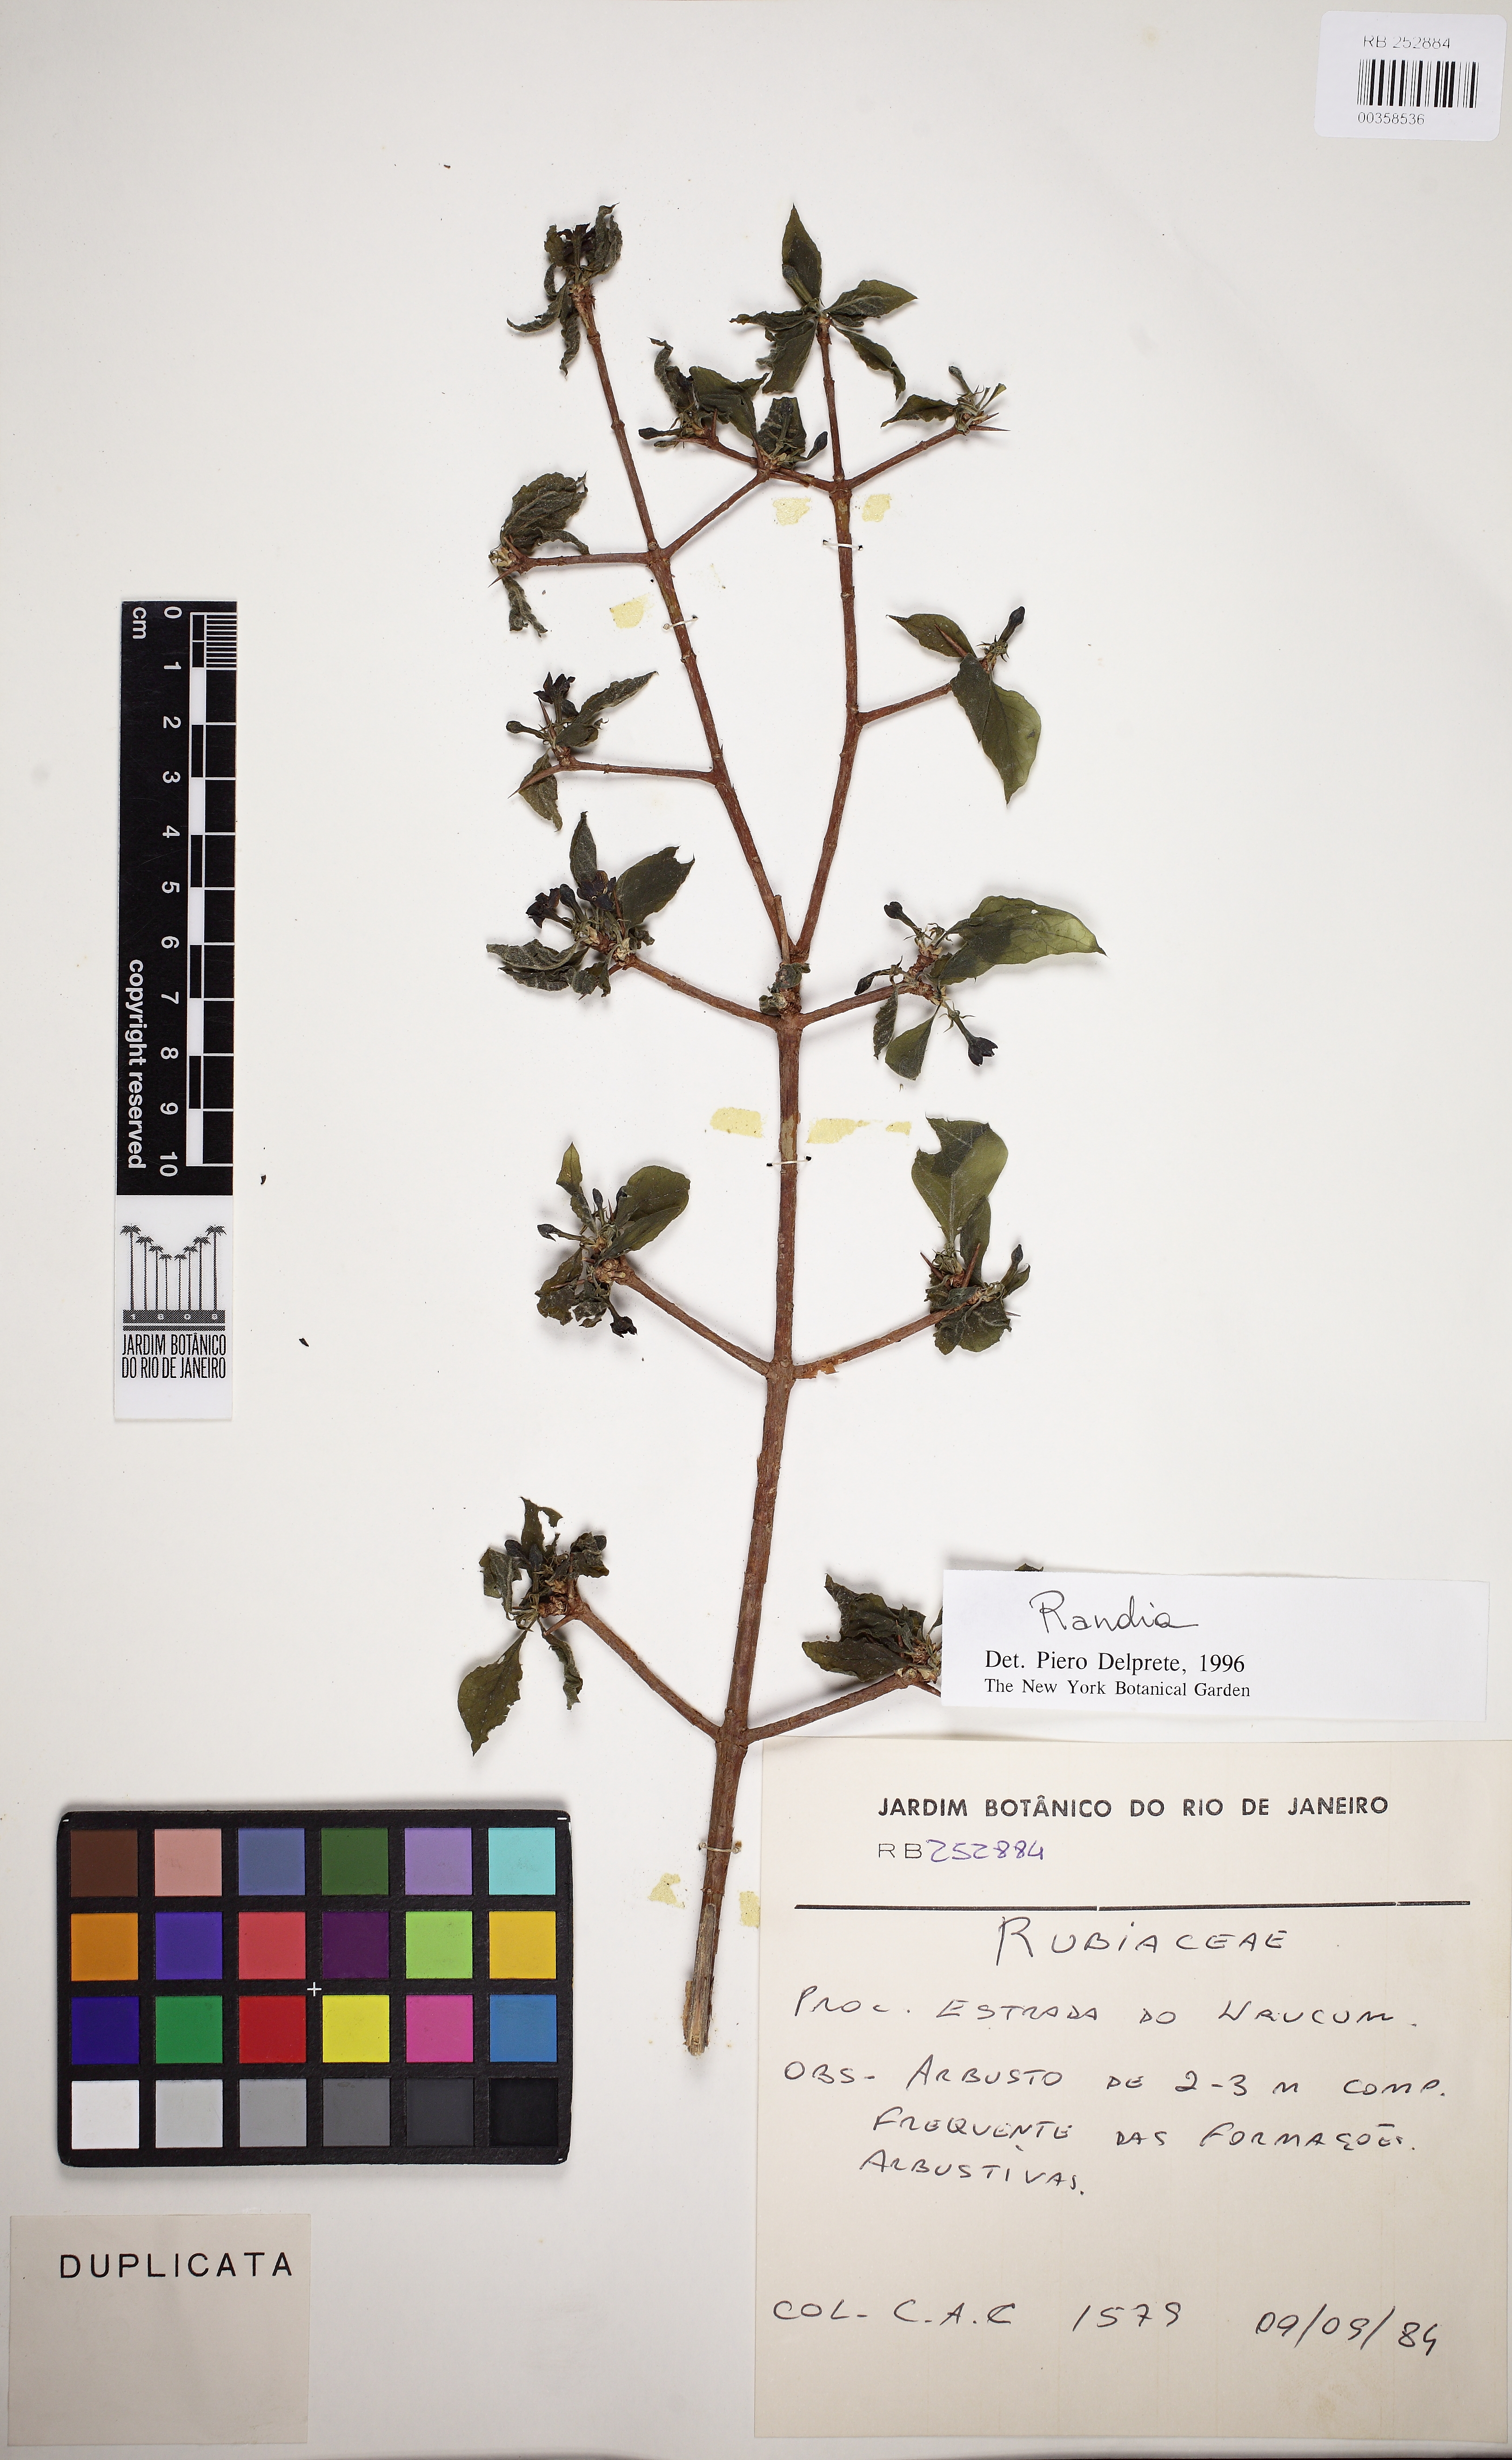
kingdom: Plantae
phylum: Tracheophyta
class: Magnoliopsida
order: Gentianales
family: Rubiaceae
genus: Randia
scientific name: Randia
